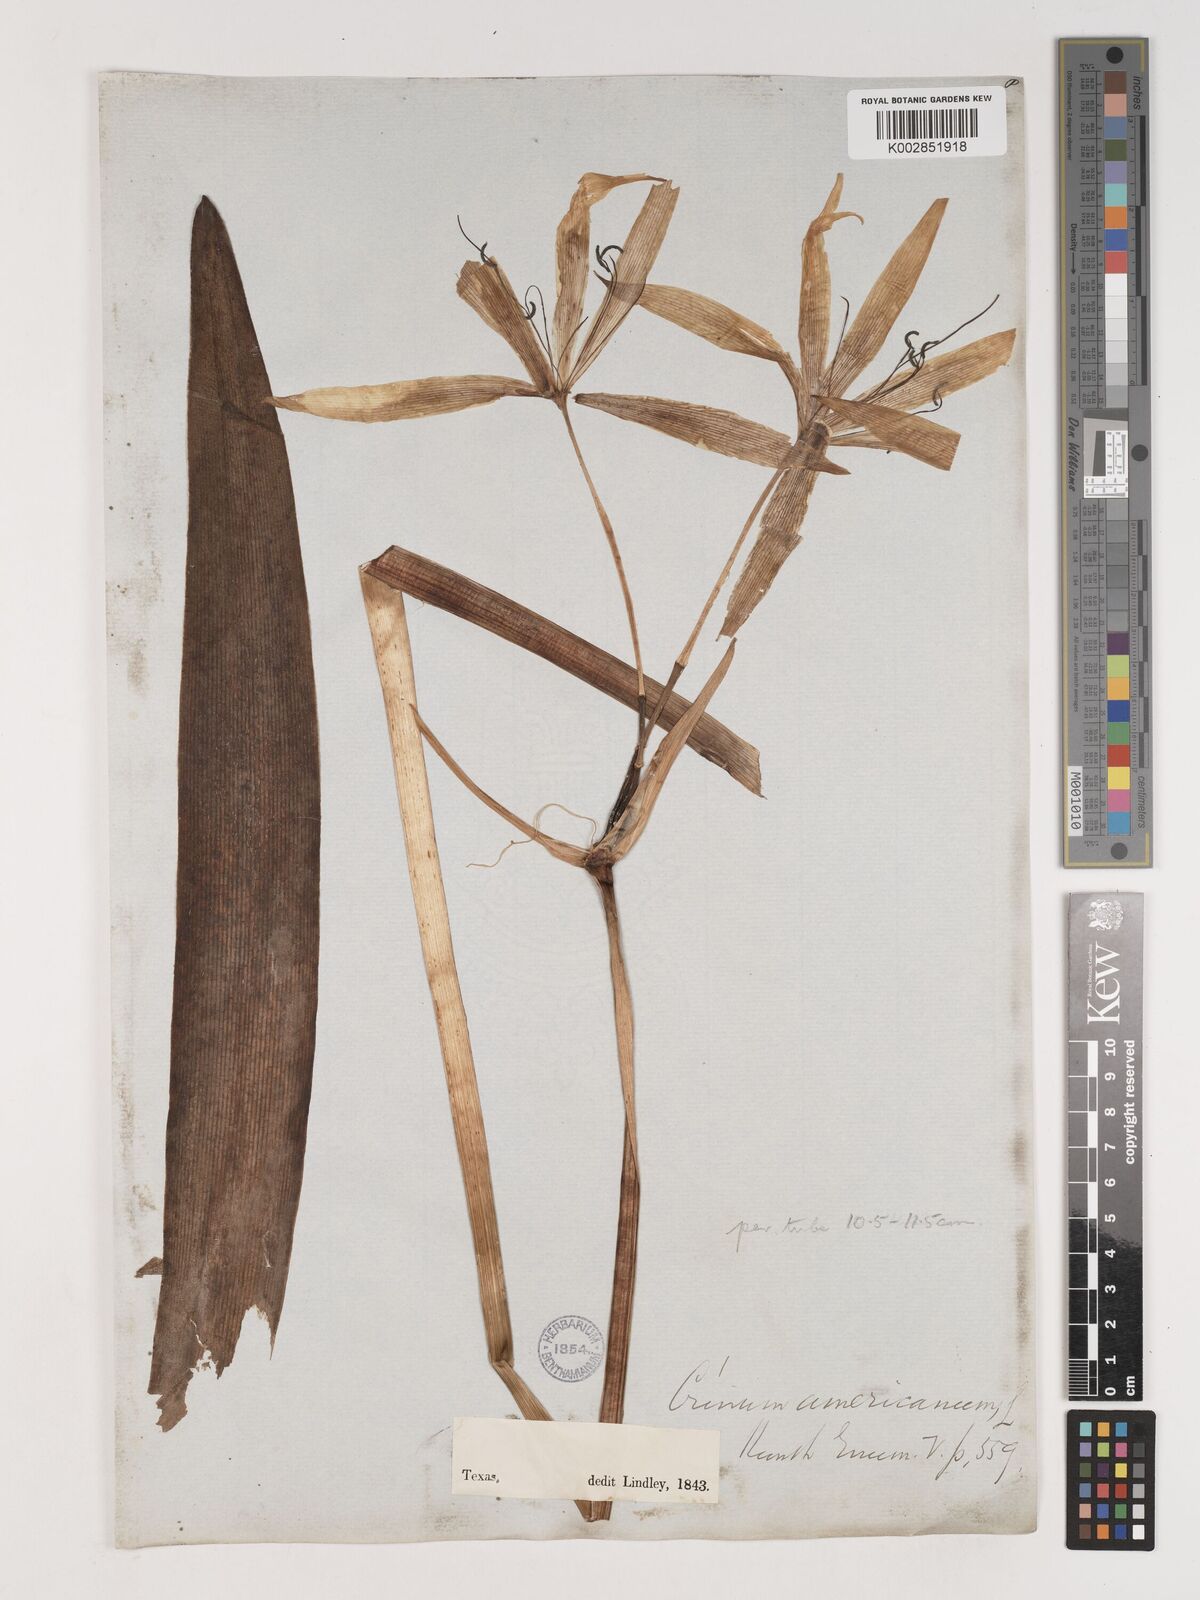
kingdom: Plantae
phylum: Tracheophyta
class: Liliopsida
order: Asparagales
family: Amaryllidaceae
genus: Crinum
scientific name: Crinum americanum
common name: Florida swamp-lily
